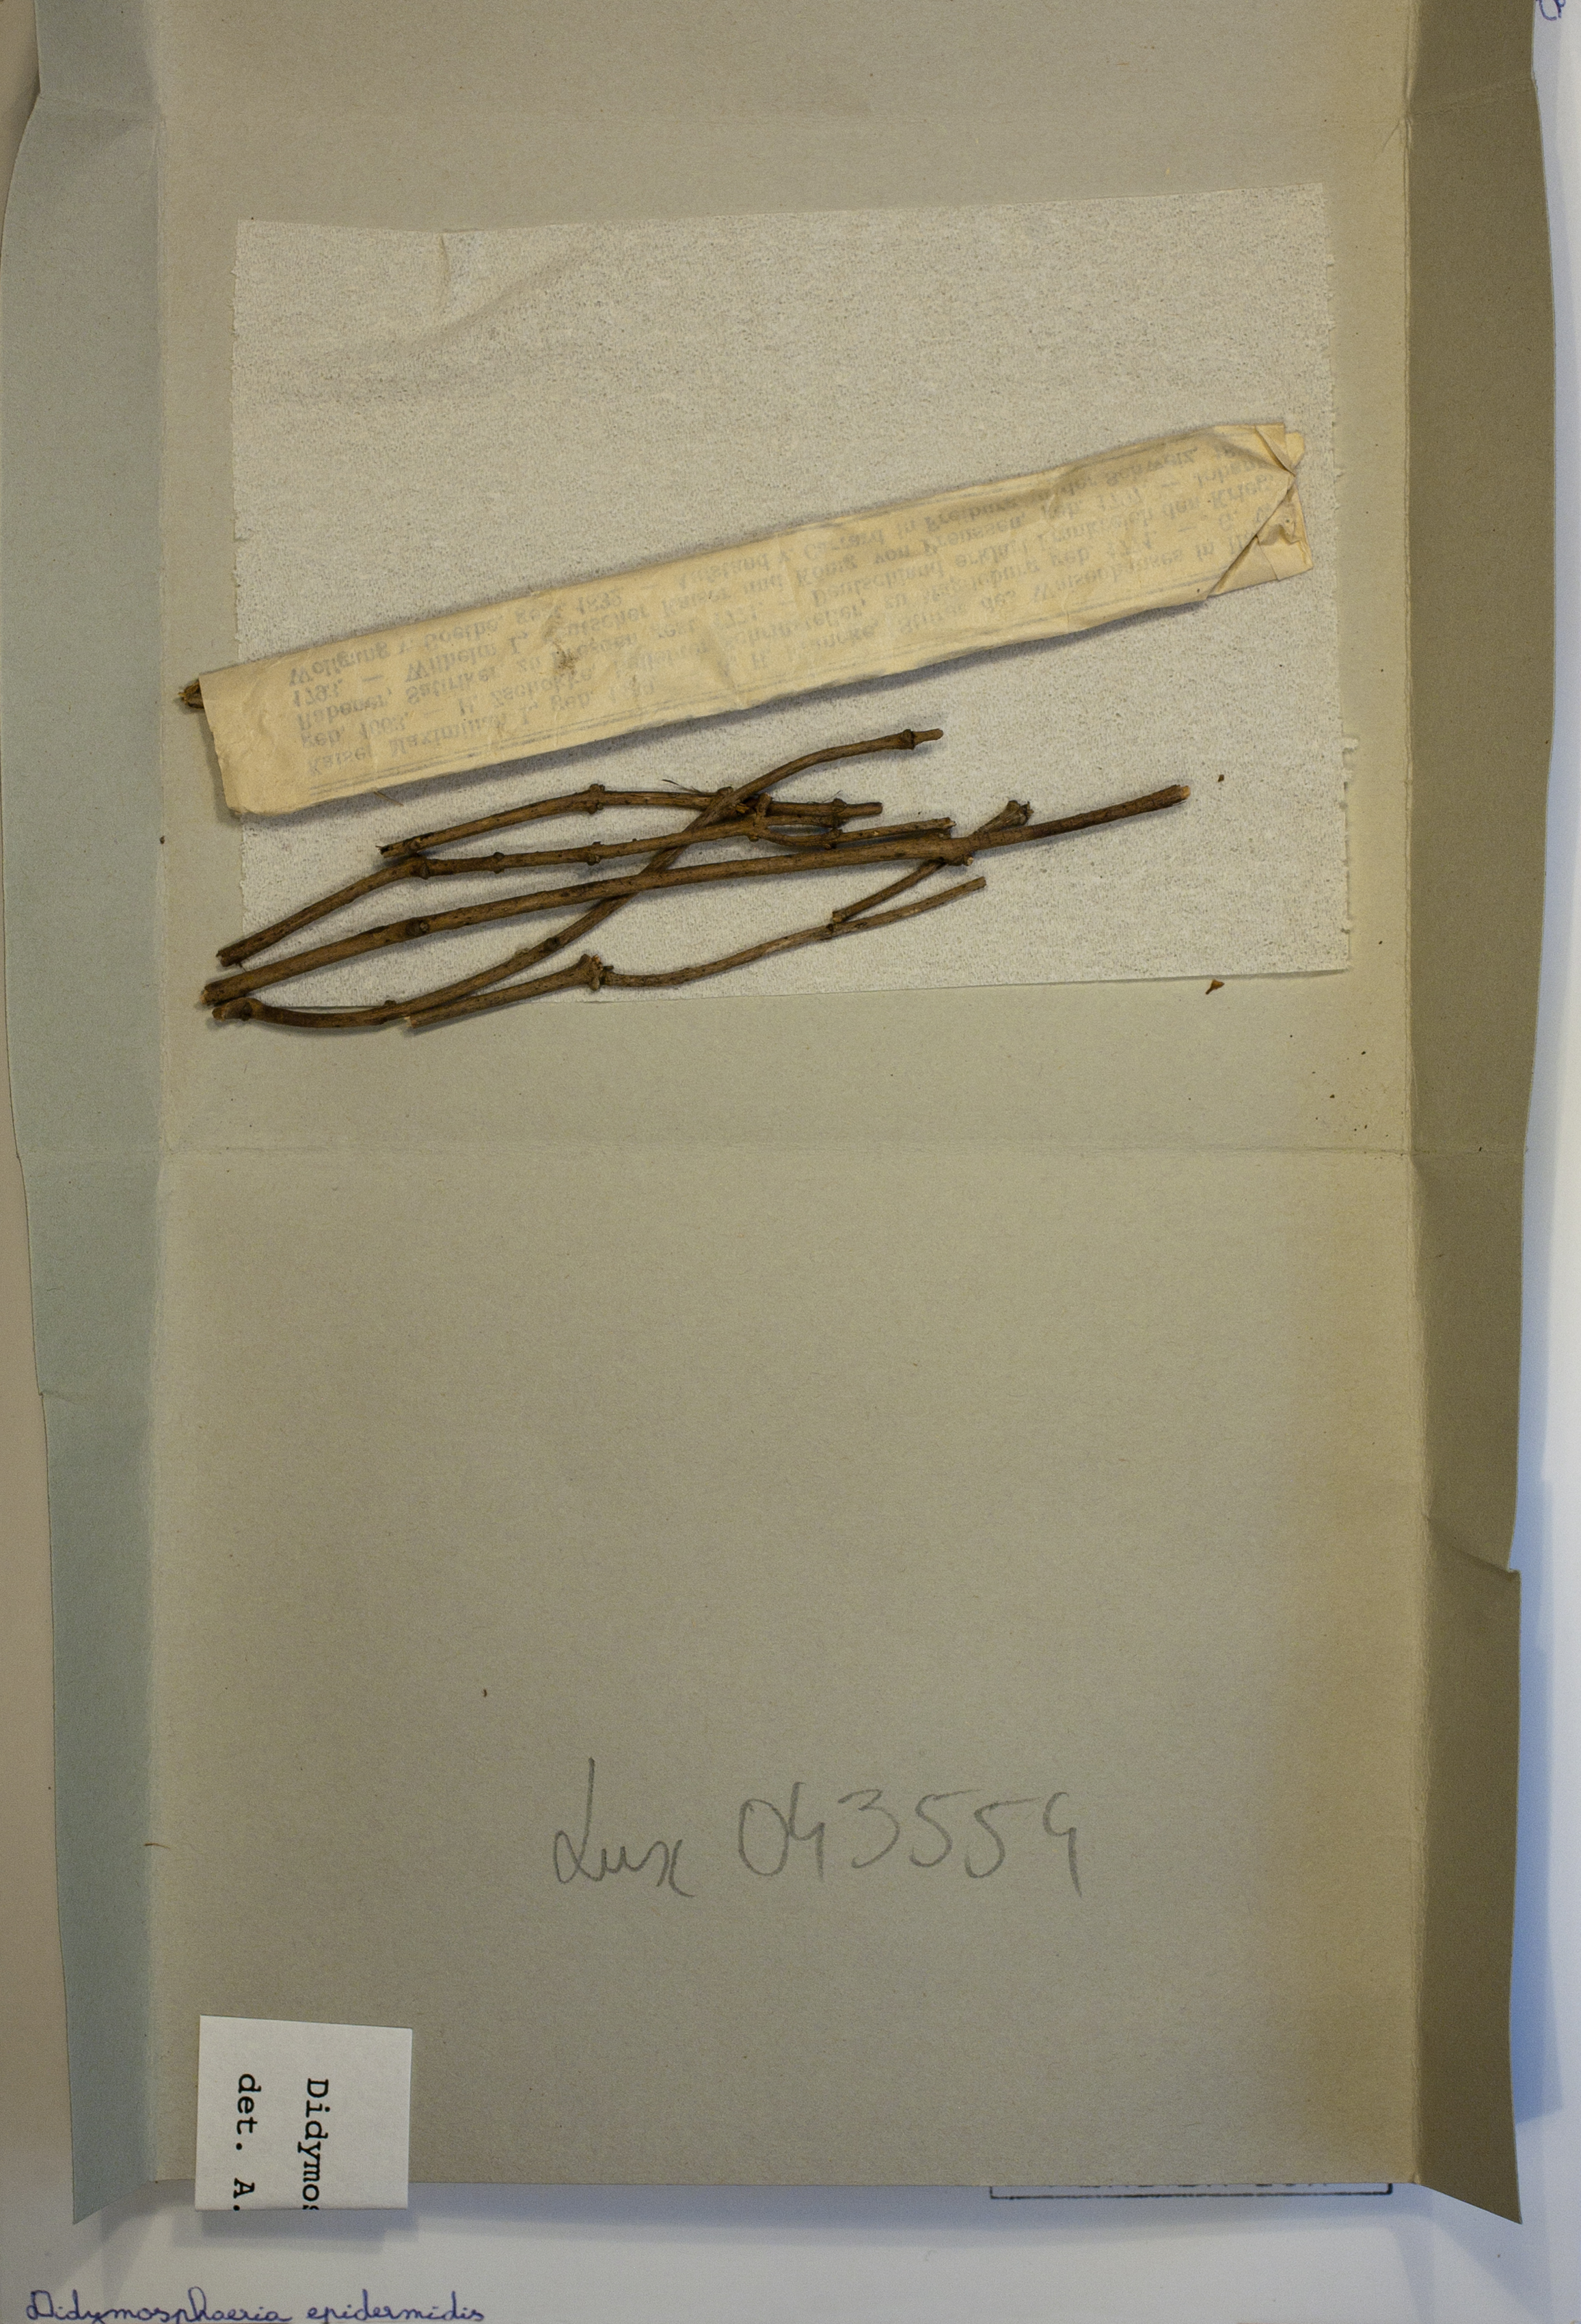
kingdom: Fungi
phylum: Ascomycota
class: Dothideomycetes
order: Pleosporales
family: Didymosphaeriaceae
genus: Didymosphaeria
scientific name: Didymosphaeria epidermidis
